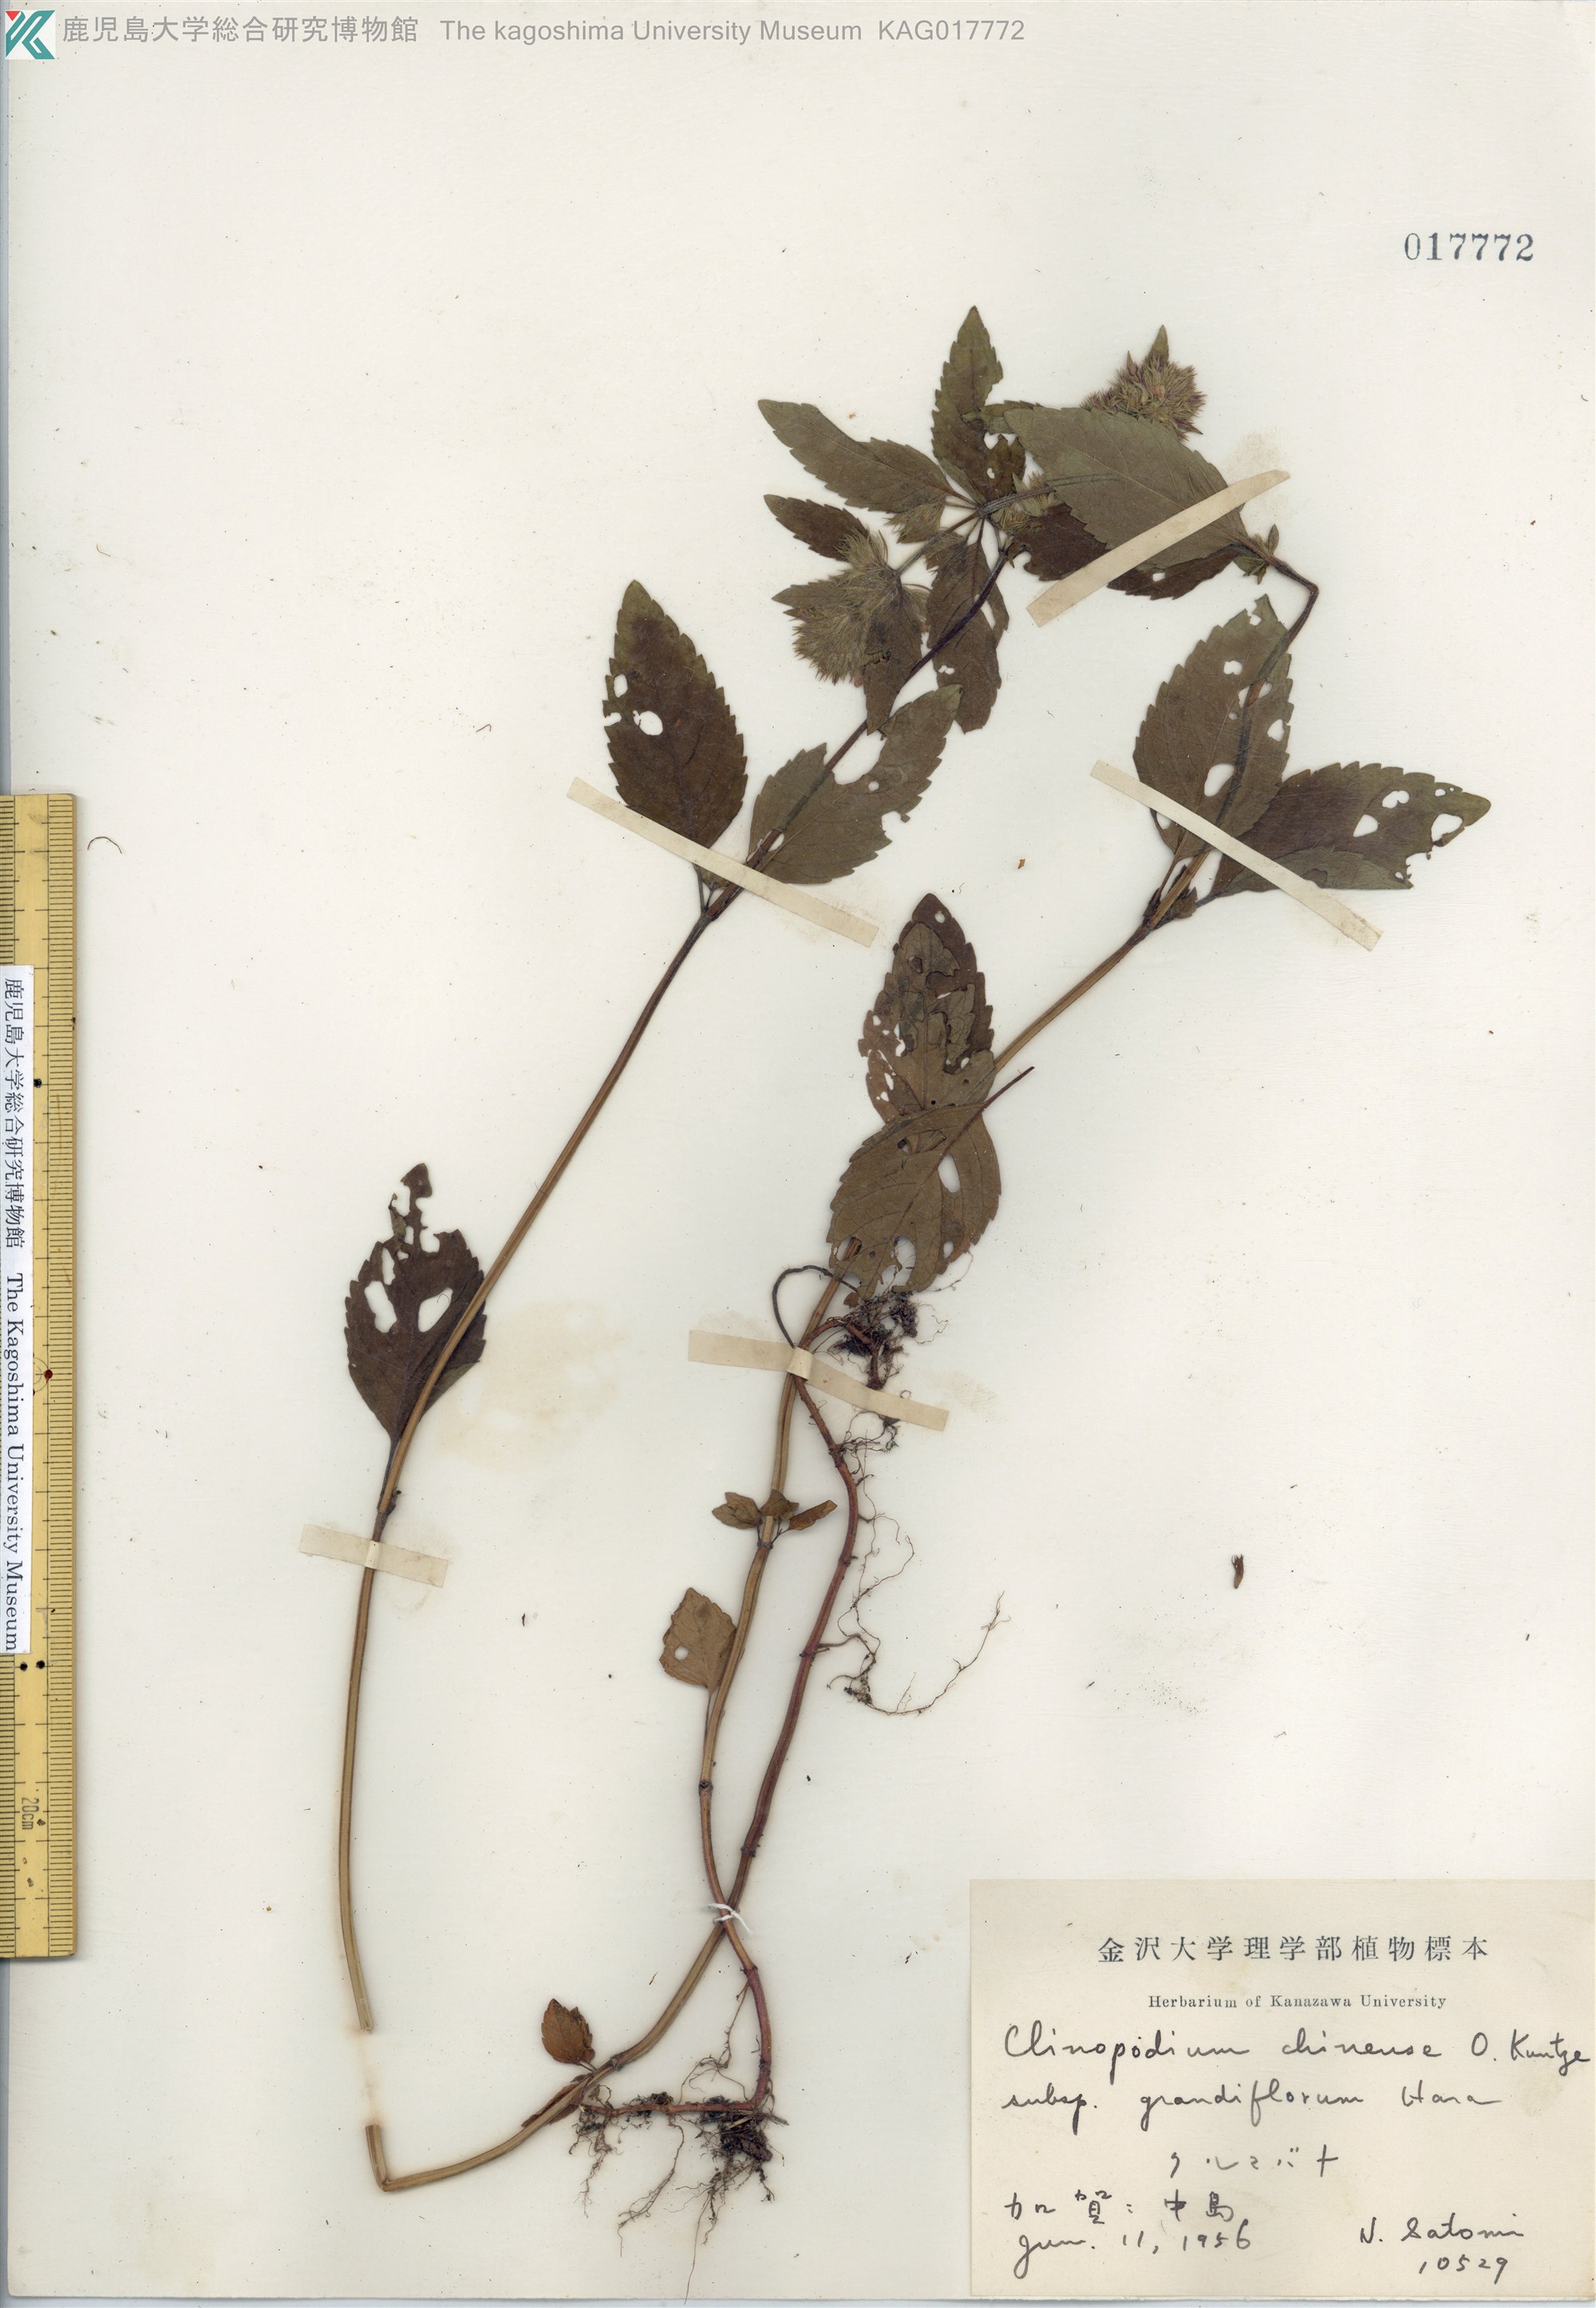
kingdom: Plantae
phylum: Tracheophyta
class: Magnoliopsida
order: Lamiales
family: Lamiaceae
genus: Clinopodium
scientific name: Clinopodium chinense
